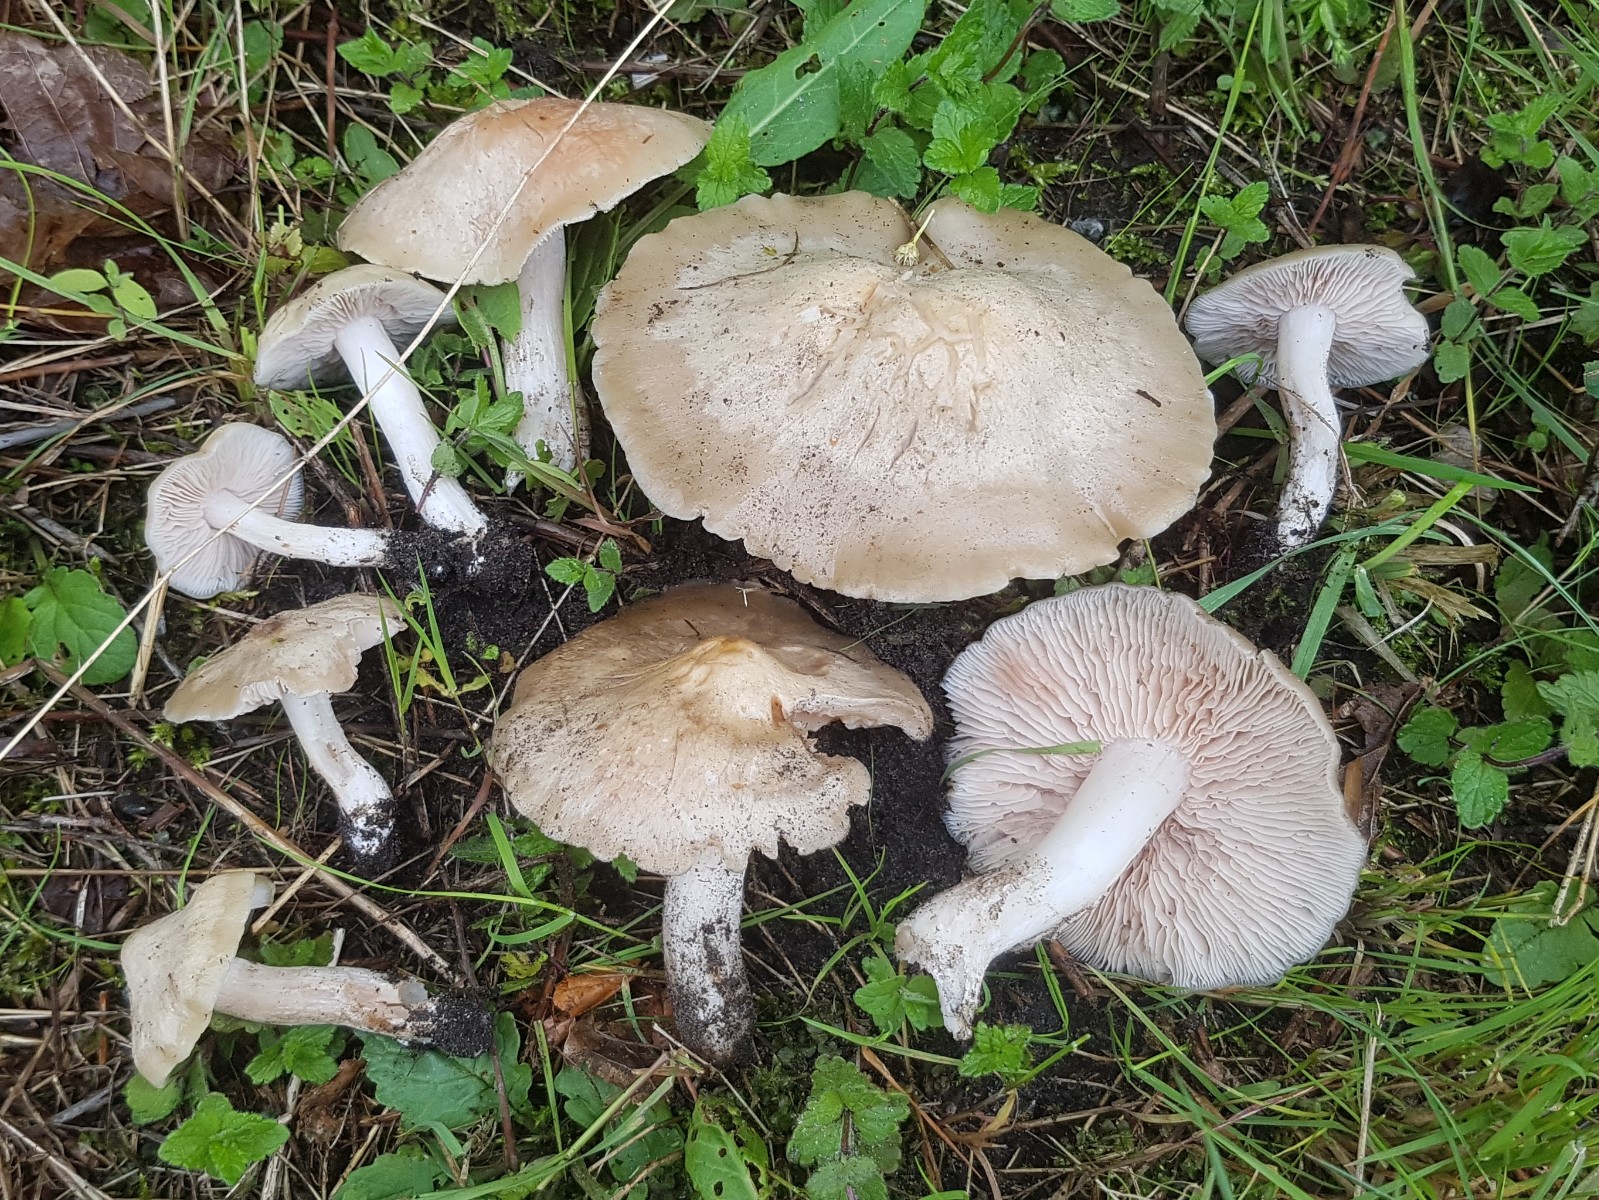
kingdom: Fungi
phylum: Basidiomycota
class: Agaricomycetes
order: Agaricales
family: Entolomataceae
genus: Entoloma
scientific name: Entoloma sepium
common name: slåen-rødblad
